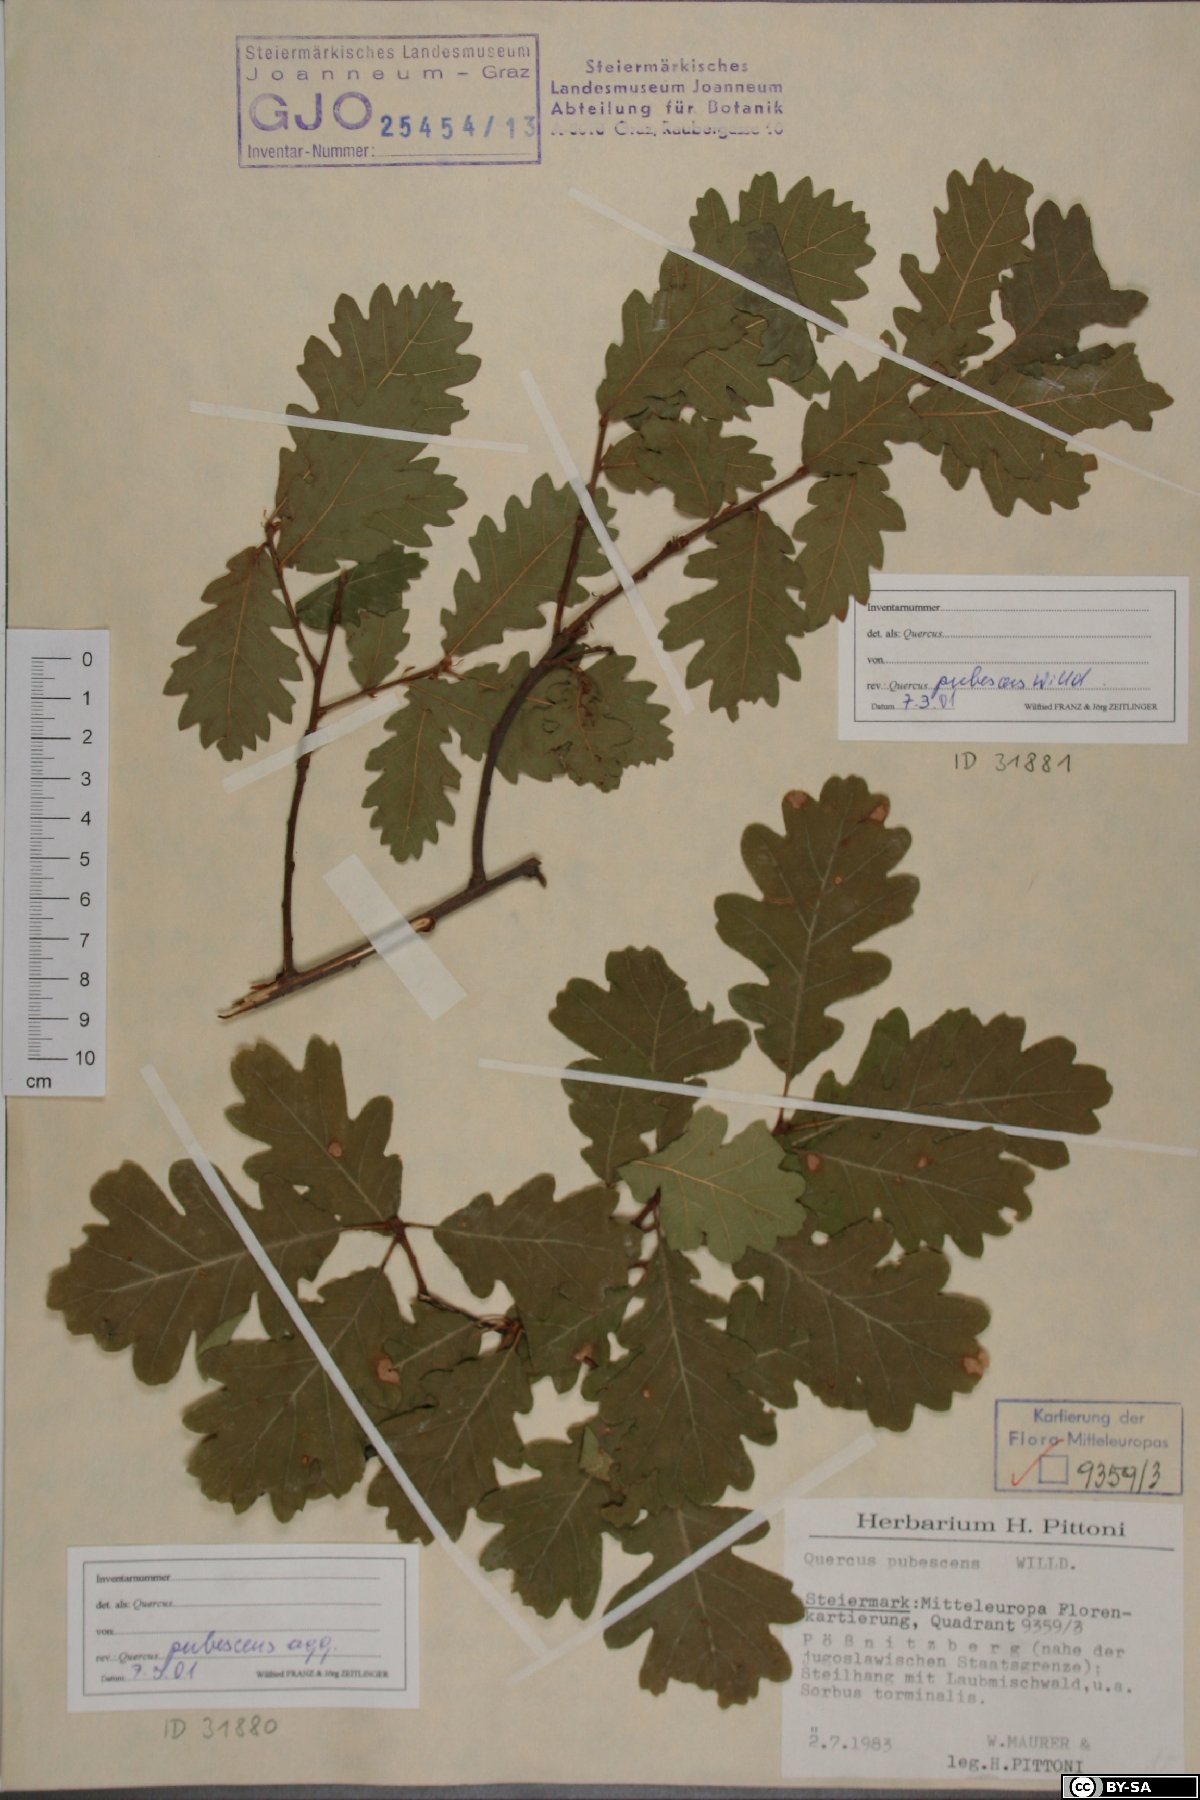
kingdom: Plantae
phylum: Tracheophyta
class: Magnoliopsida
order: Fagales
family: Fagaceae
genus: Quercus
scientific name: Quercus pubescens
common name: Downy oak
